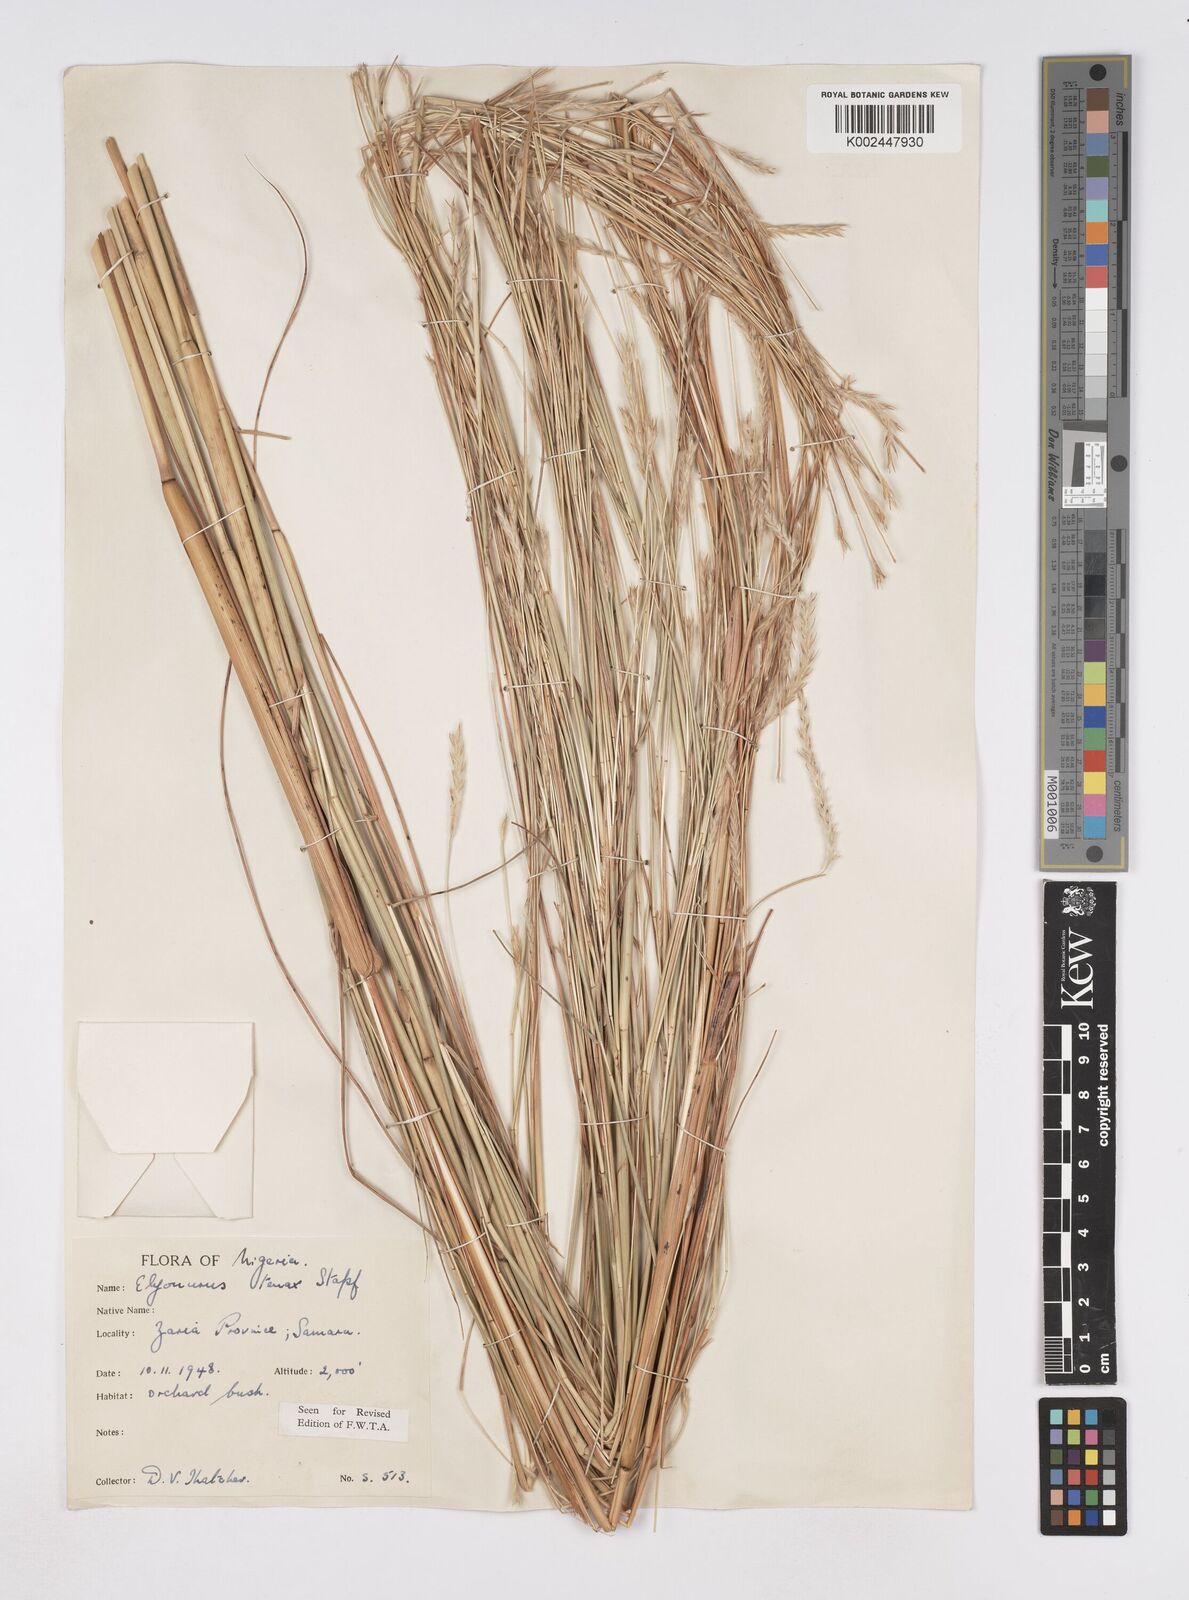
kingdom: Plantae
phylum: Tracheophyta
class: Liliopsida
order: Poales
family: Poaceae
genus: Elionurus
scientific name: Elionurus
